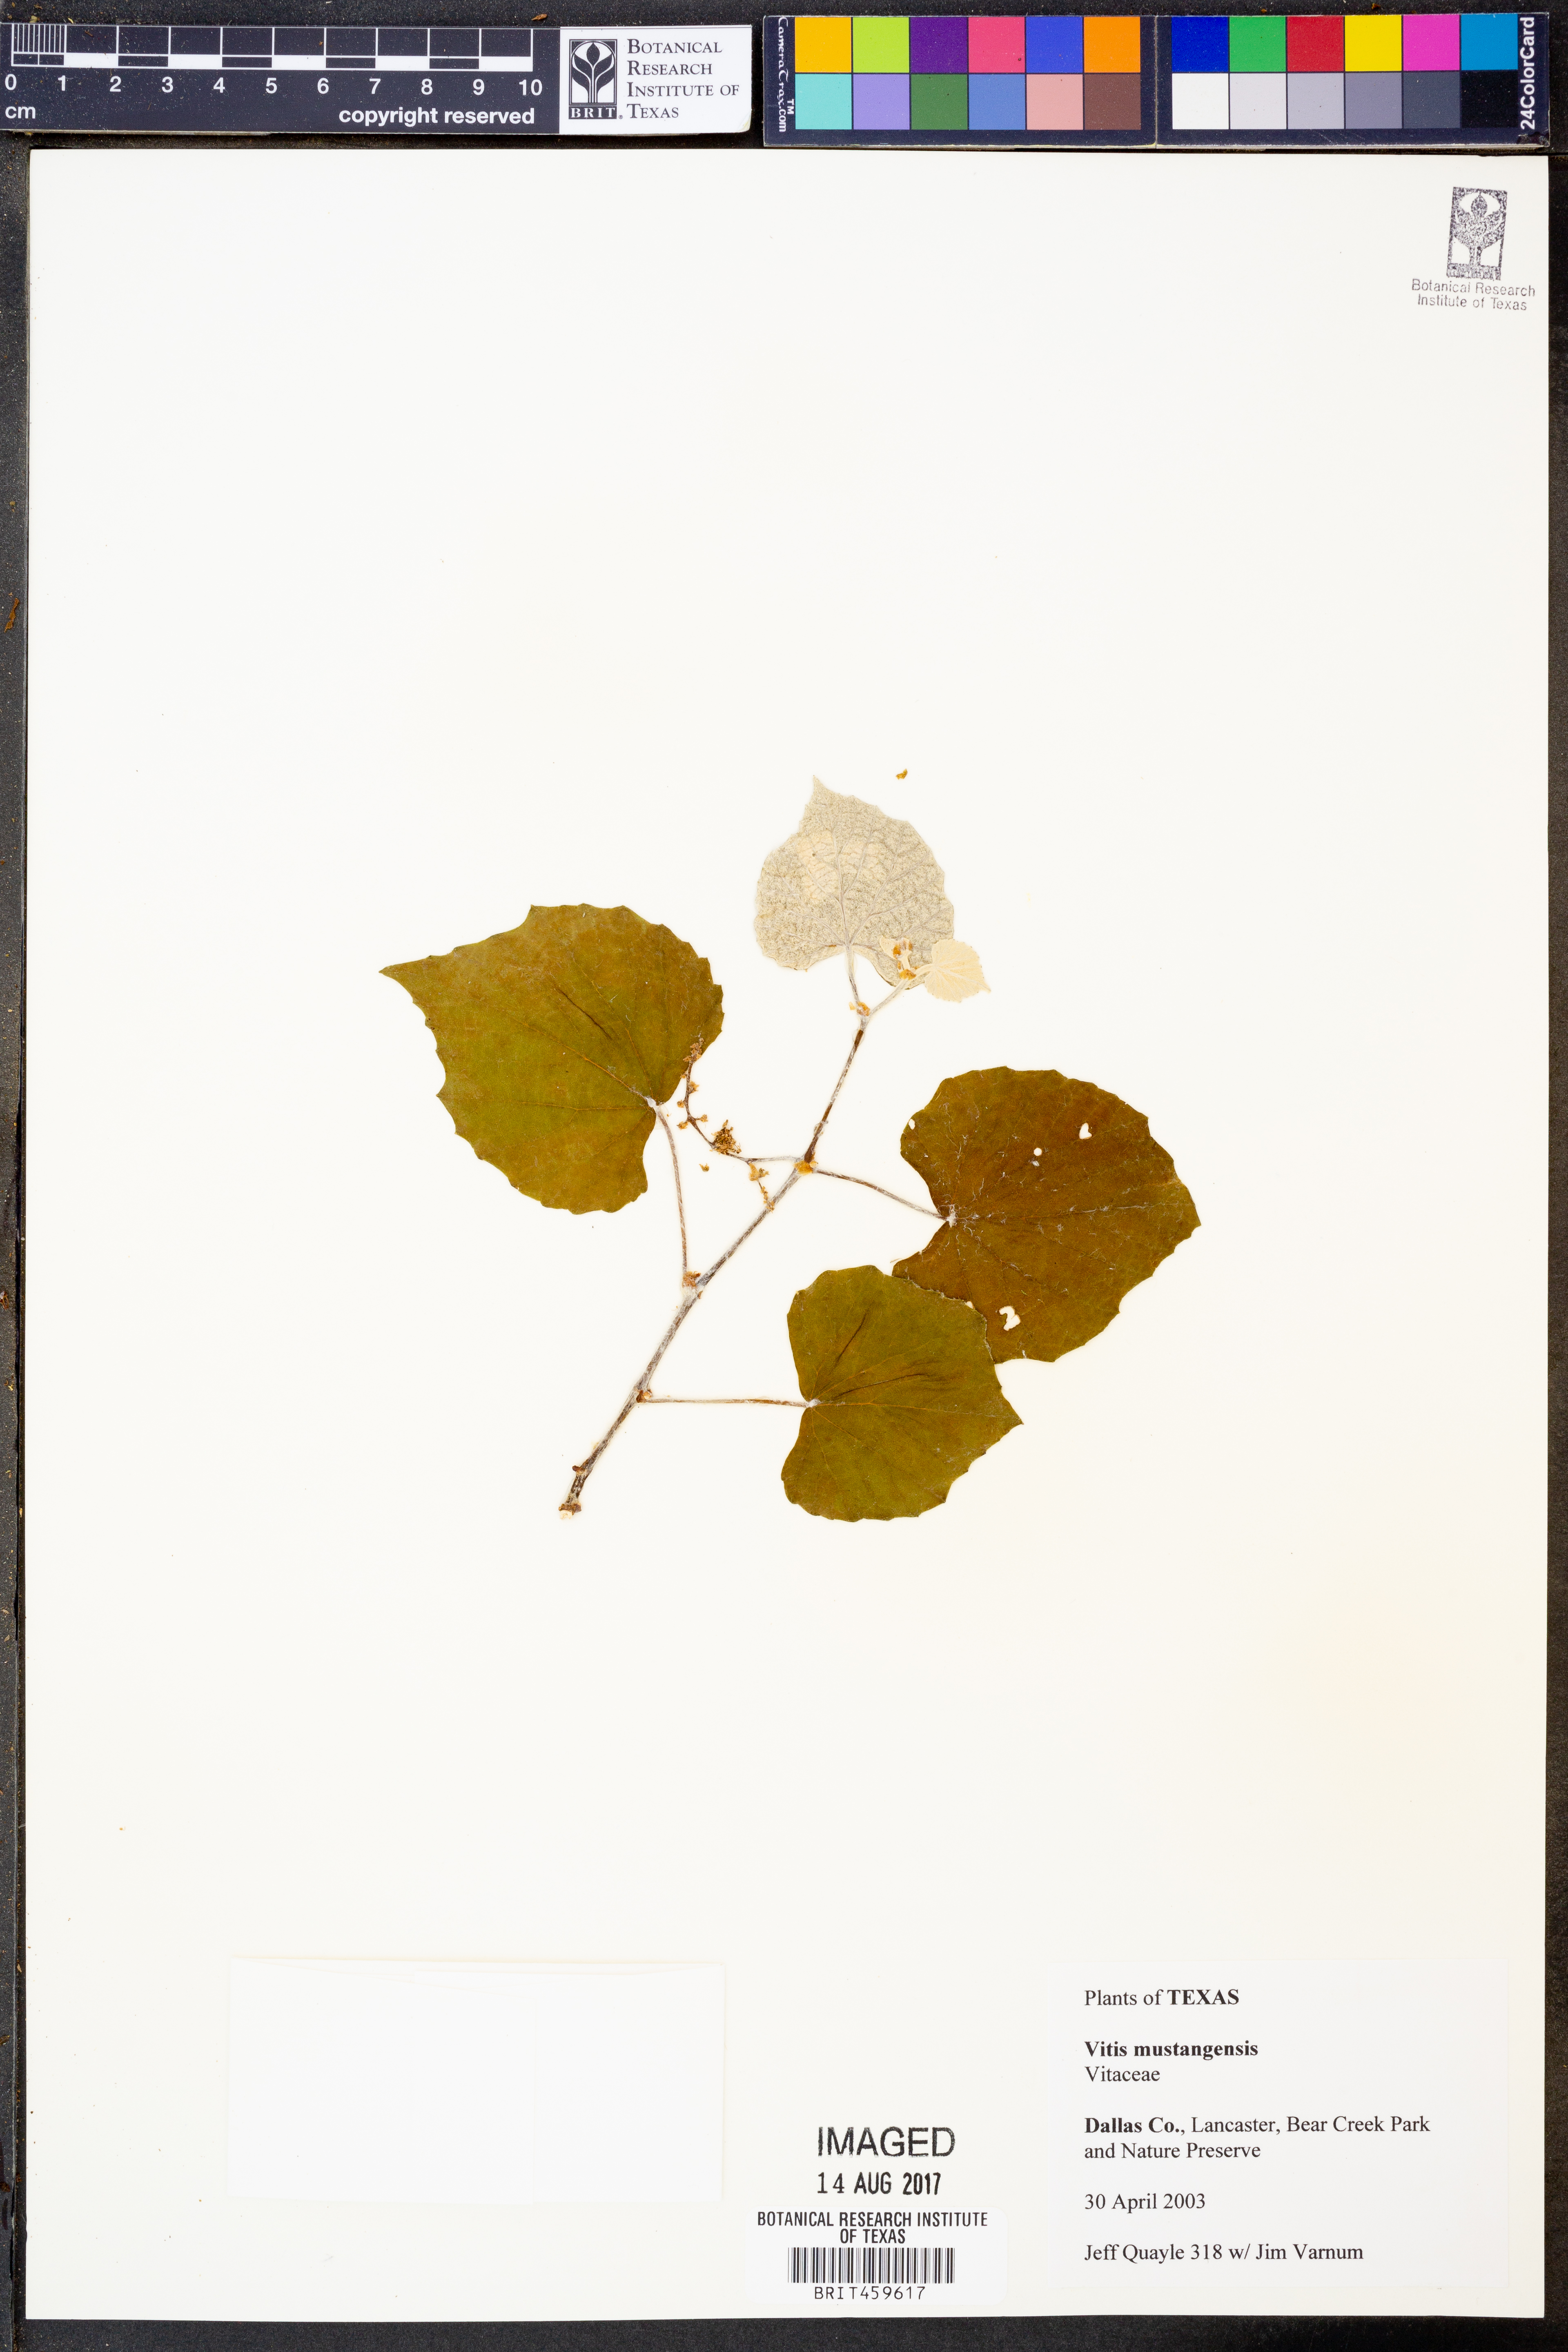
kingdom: Plantae
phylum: Tracheophyta
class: Magnoliopsida
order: Vitales
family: Vitaceae
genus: Vitis
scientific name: Vitis mustangensis
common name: Mustang grape
